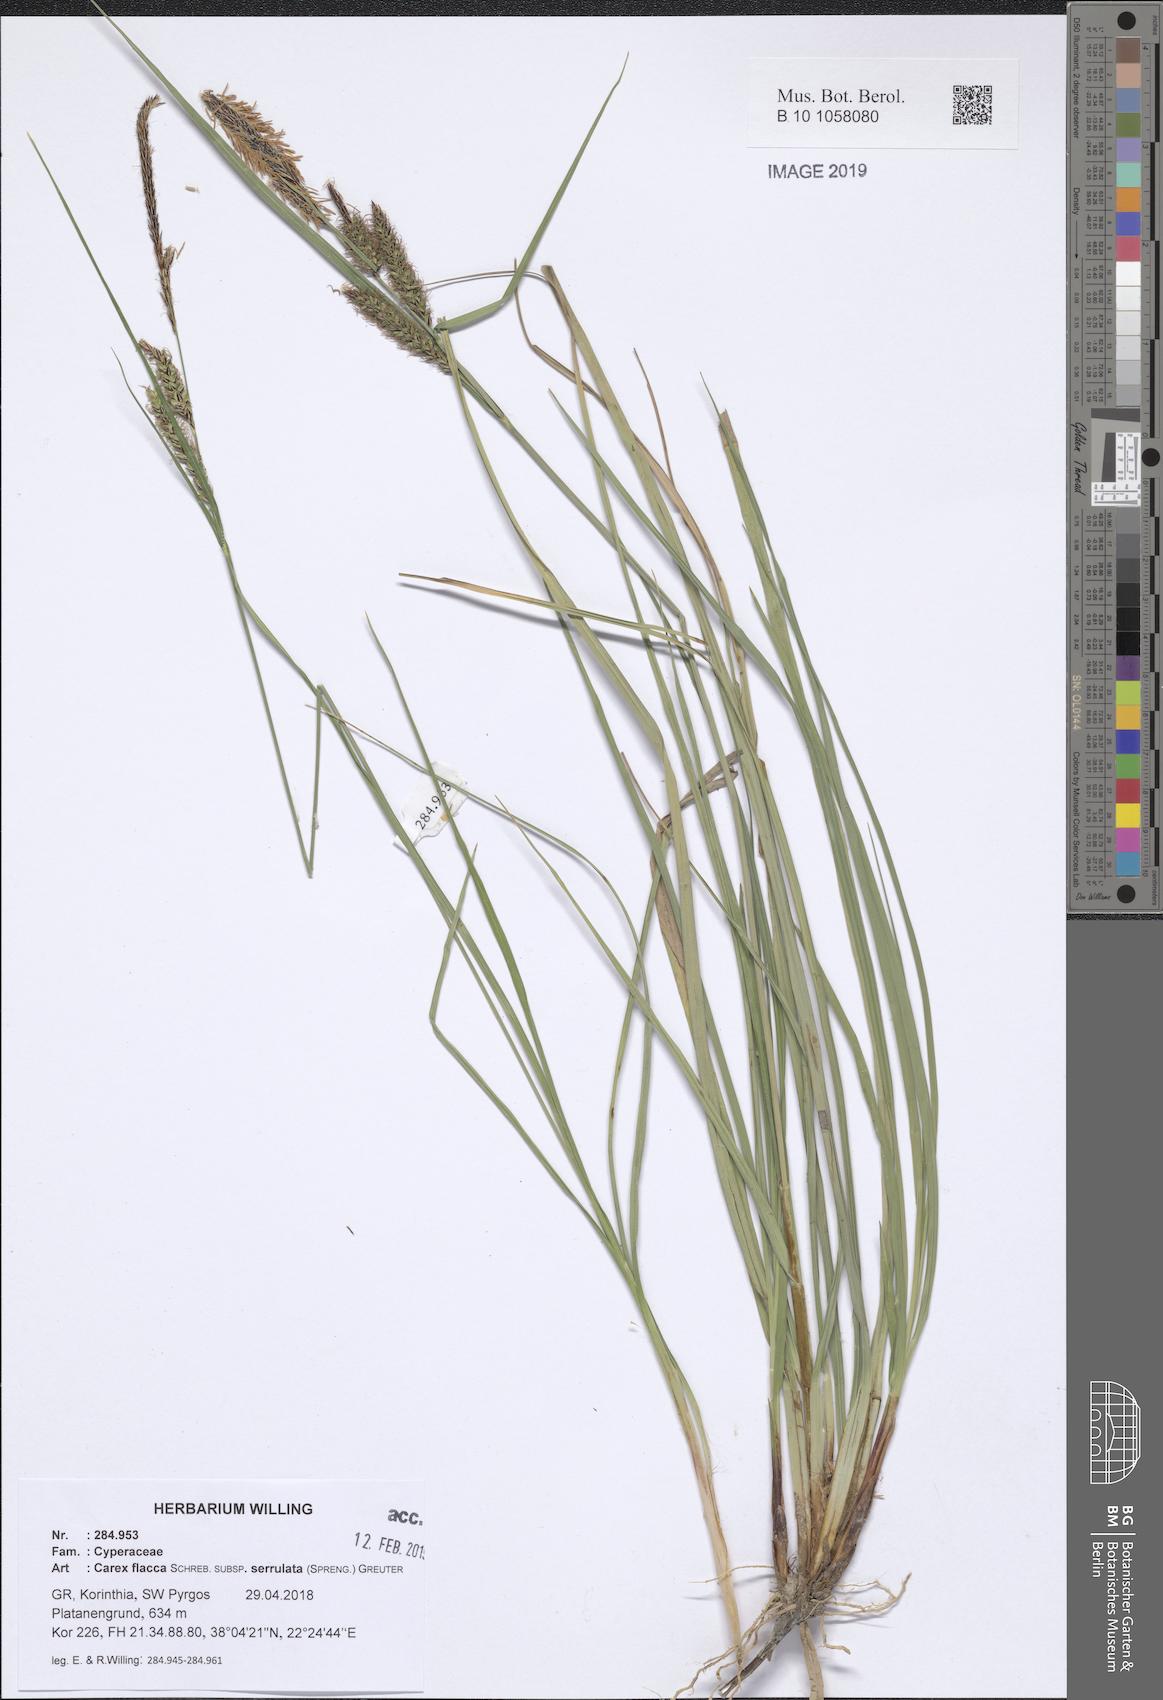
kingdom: Plantae
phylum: Tracheophyta
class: Liliopsida
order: Poales
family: Cyperaceae
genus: Carex
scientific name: Carex flacca
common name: Glaucous sedge
